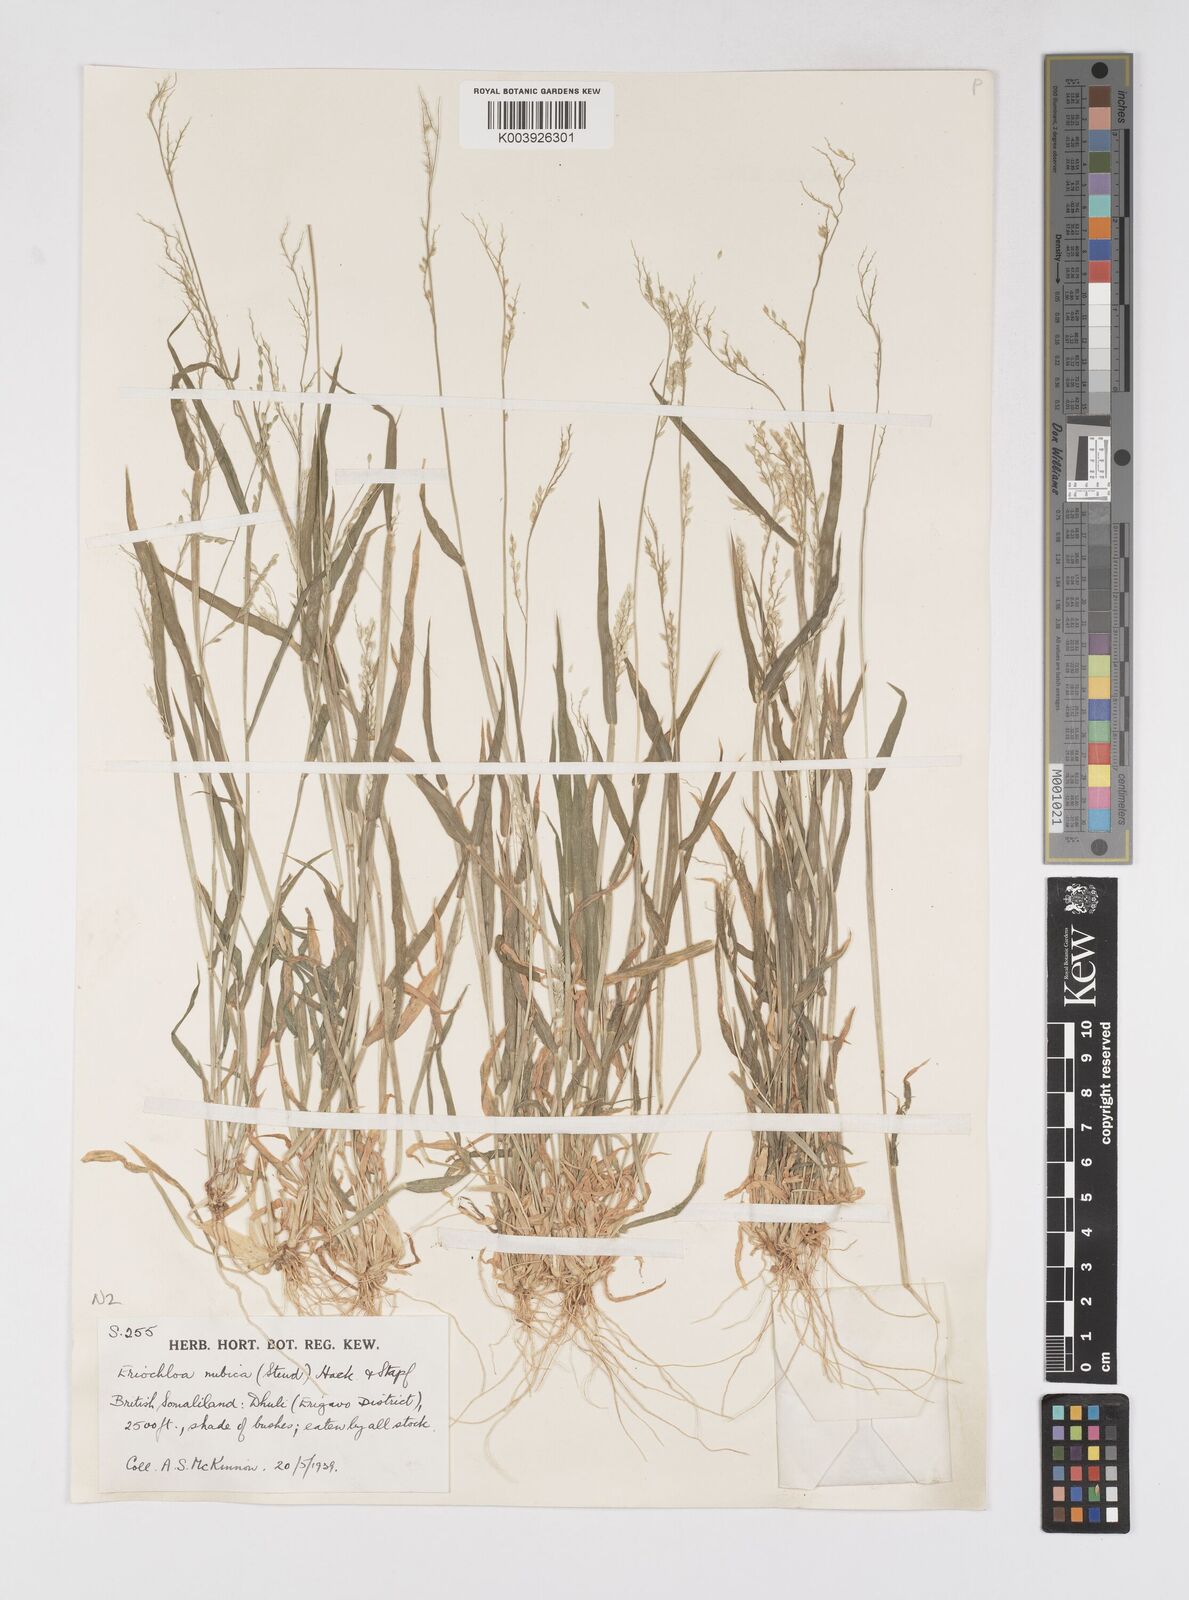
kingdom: Plantae
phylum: Tracheophyta
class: Liliopsida
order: Poales
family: Poaceae
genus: Eriochloa
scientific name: Eriochloa barbatus
